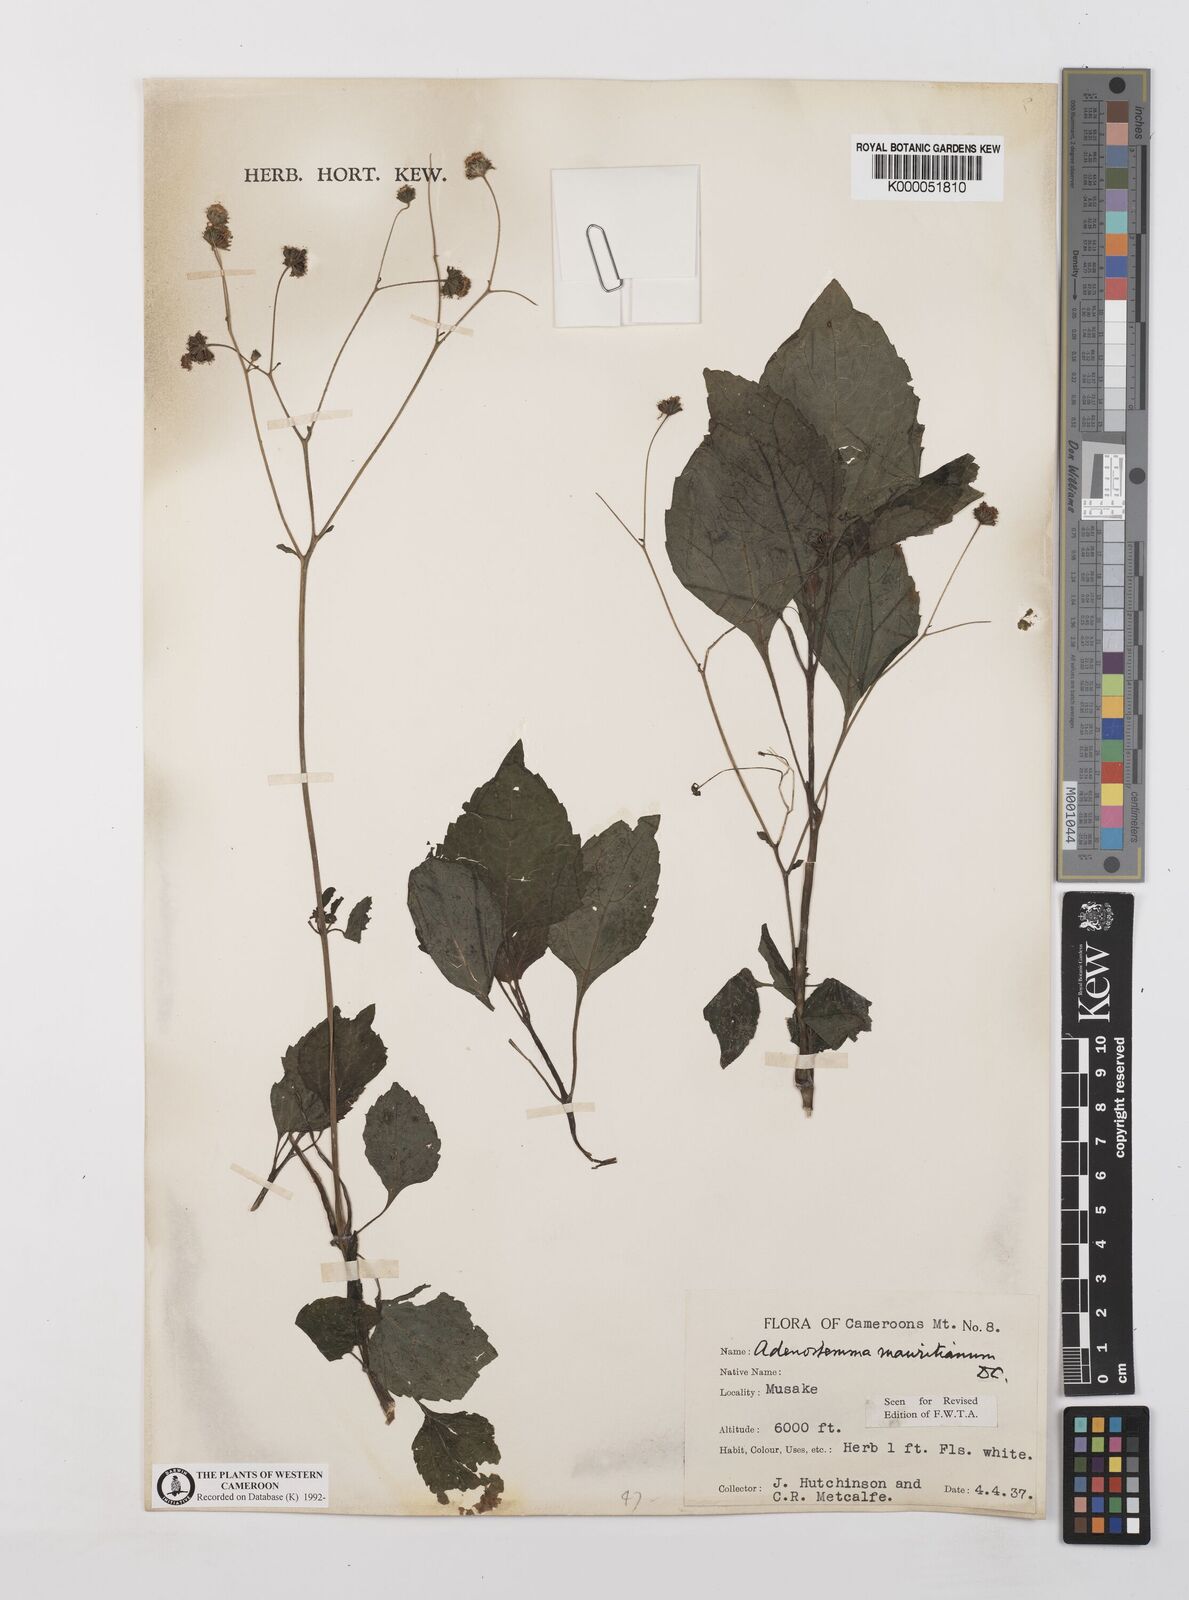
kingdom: Plantae
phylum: Tracheophyta
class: Magnoliopsida
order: Asterales
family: Asteraceae
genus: Adenostemma
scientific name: Adenostemma mauritianum
